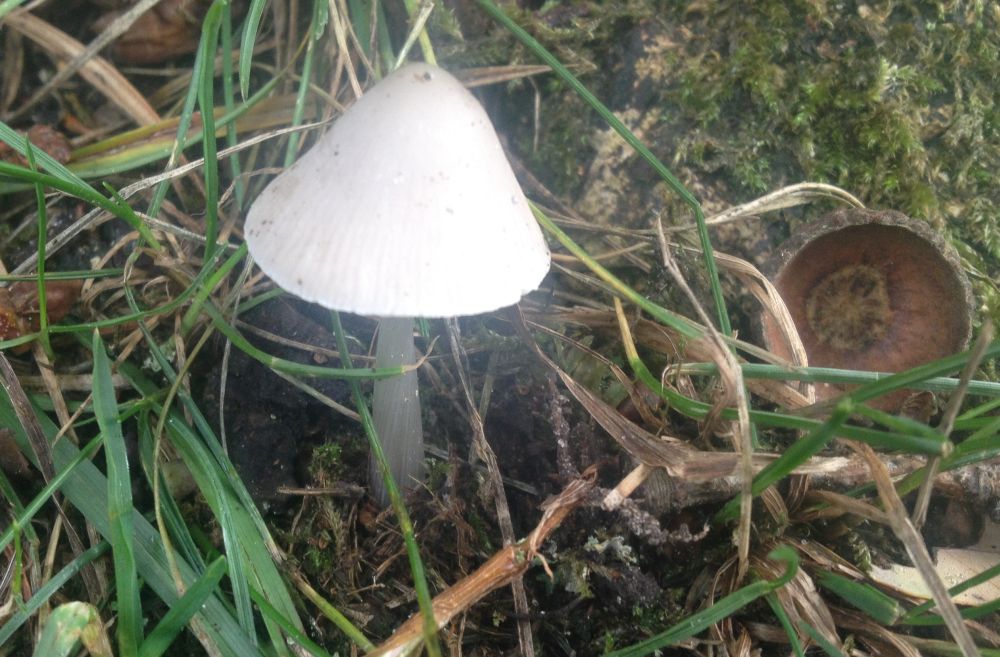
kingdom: Fungi
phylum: Basidiomycota
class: Agaricomycetes
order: Agaricales
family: Mycenaceae
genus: Mycena
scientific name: Mycena polygramma
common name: mangestribet huesvamp
